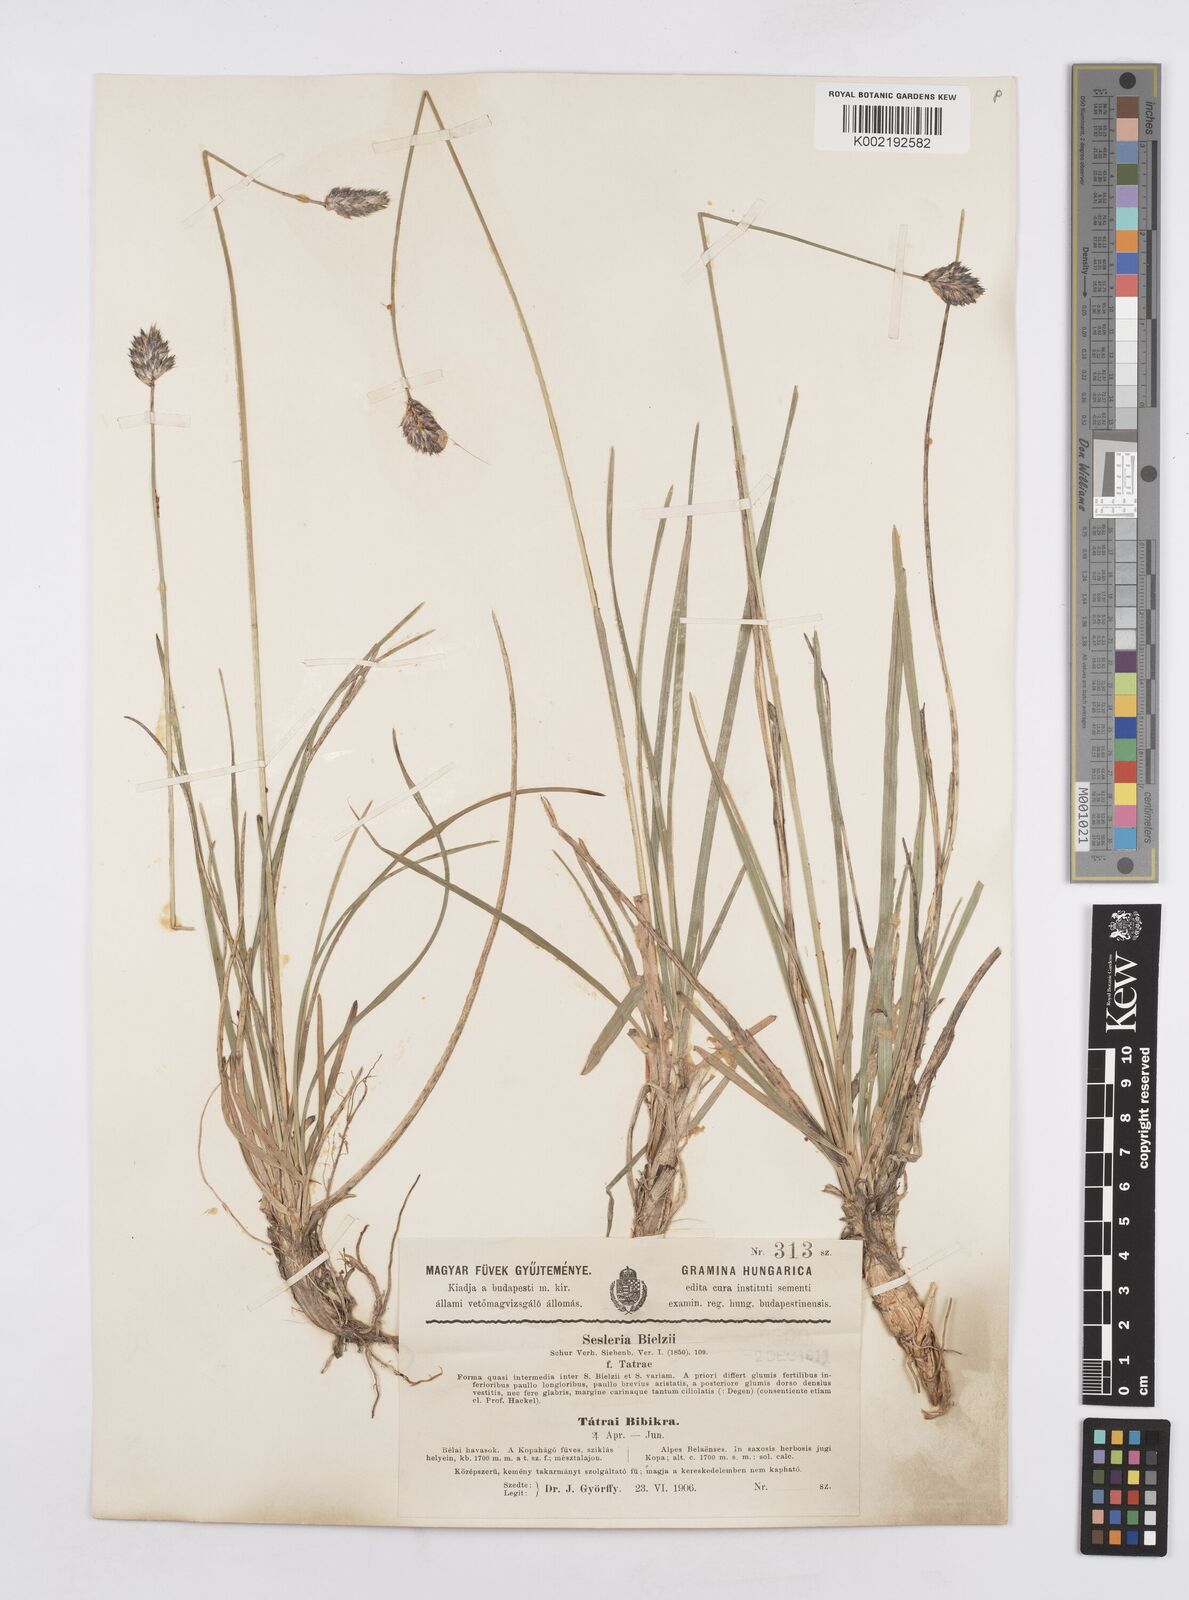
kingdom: Plantae
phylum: Tracheophyta
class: Liliopsida
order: Poales
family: Poaceae
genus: Sesleria
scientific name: Sesleria tatrae
